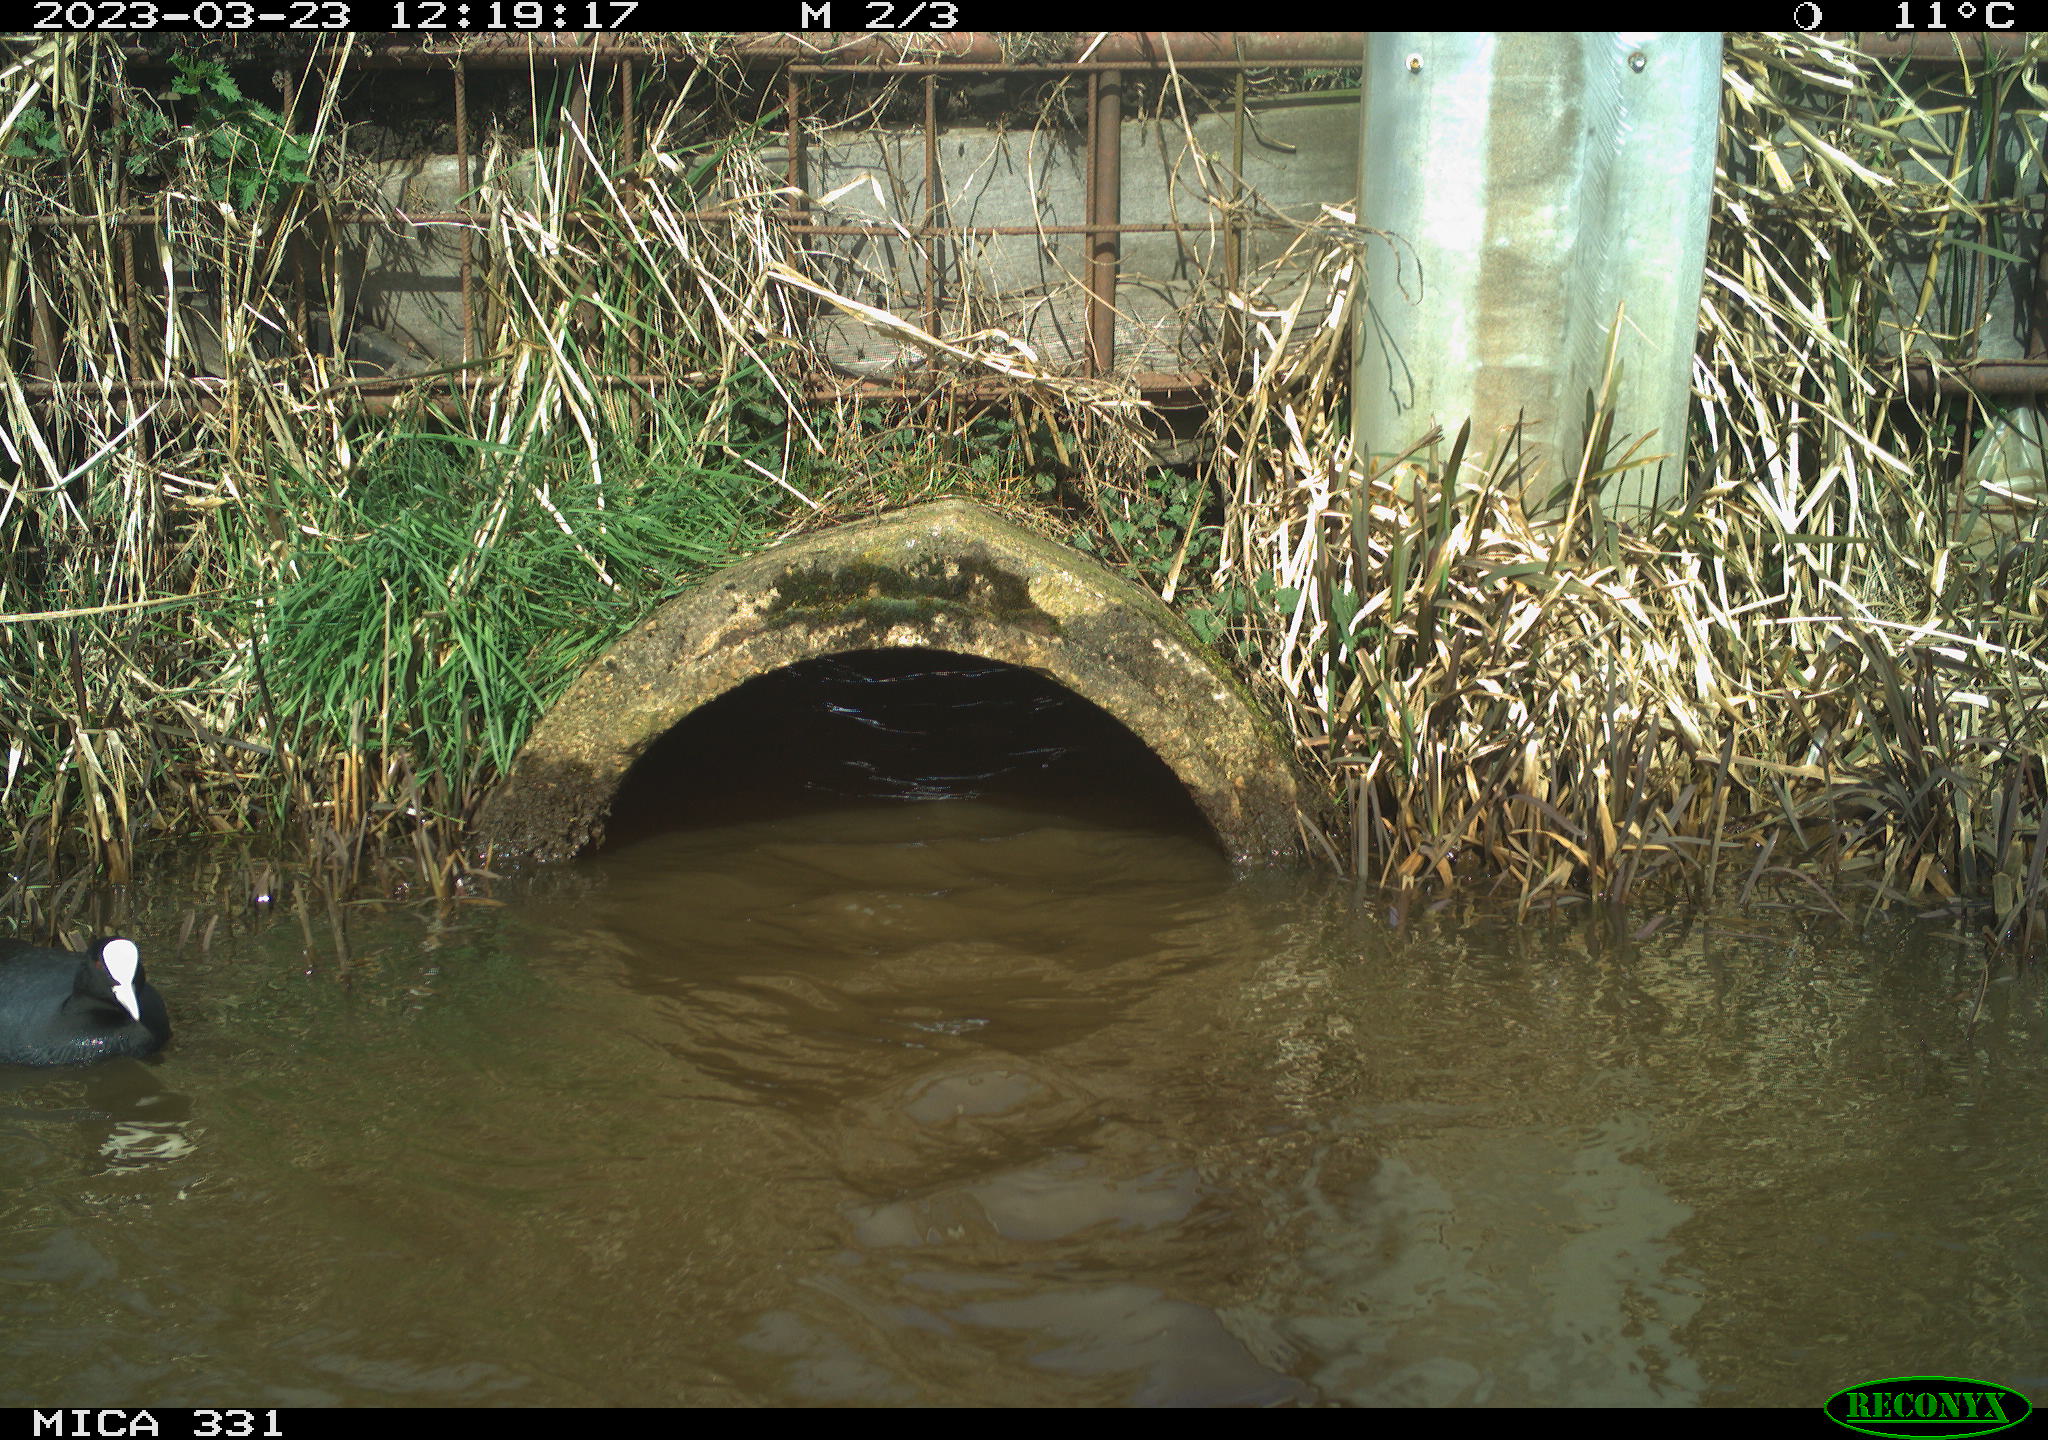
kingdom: Animalia
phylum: Chordata
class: Aves
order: Gruiformes
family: Rallidae
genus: Fulica
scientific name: Fulica atra
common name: Eurasian coot
